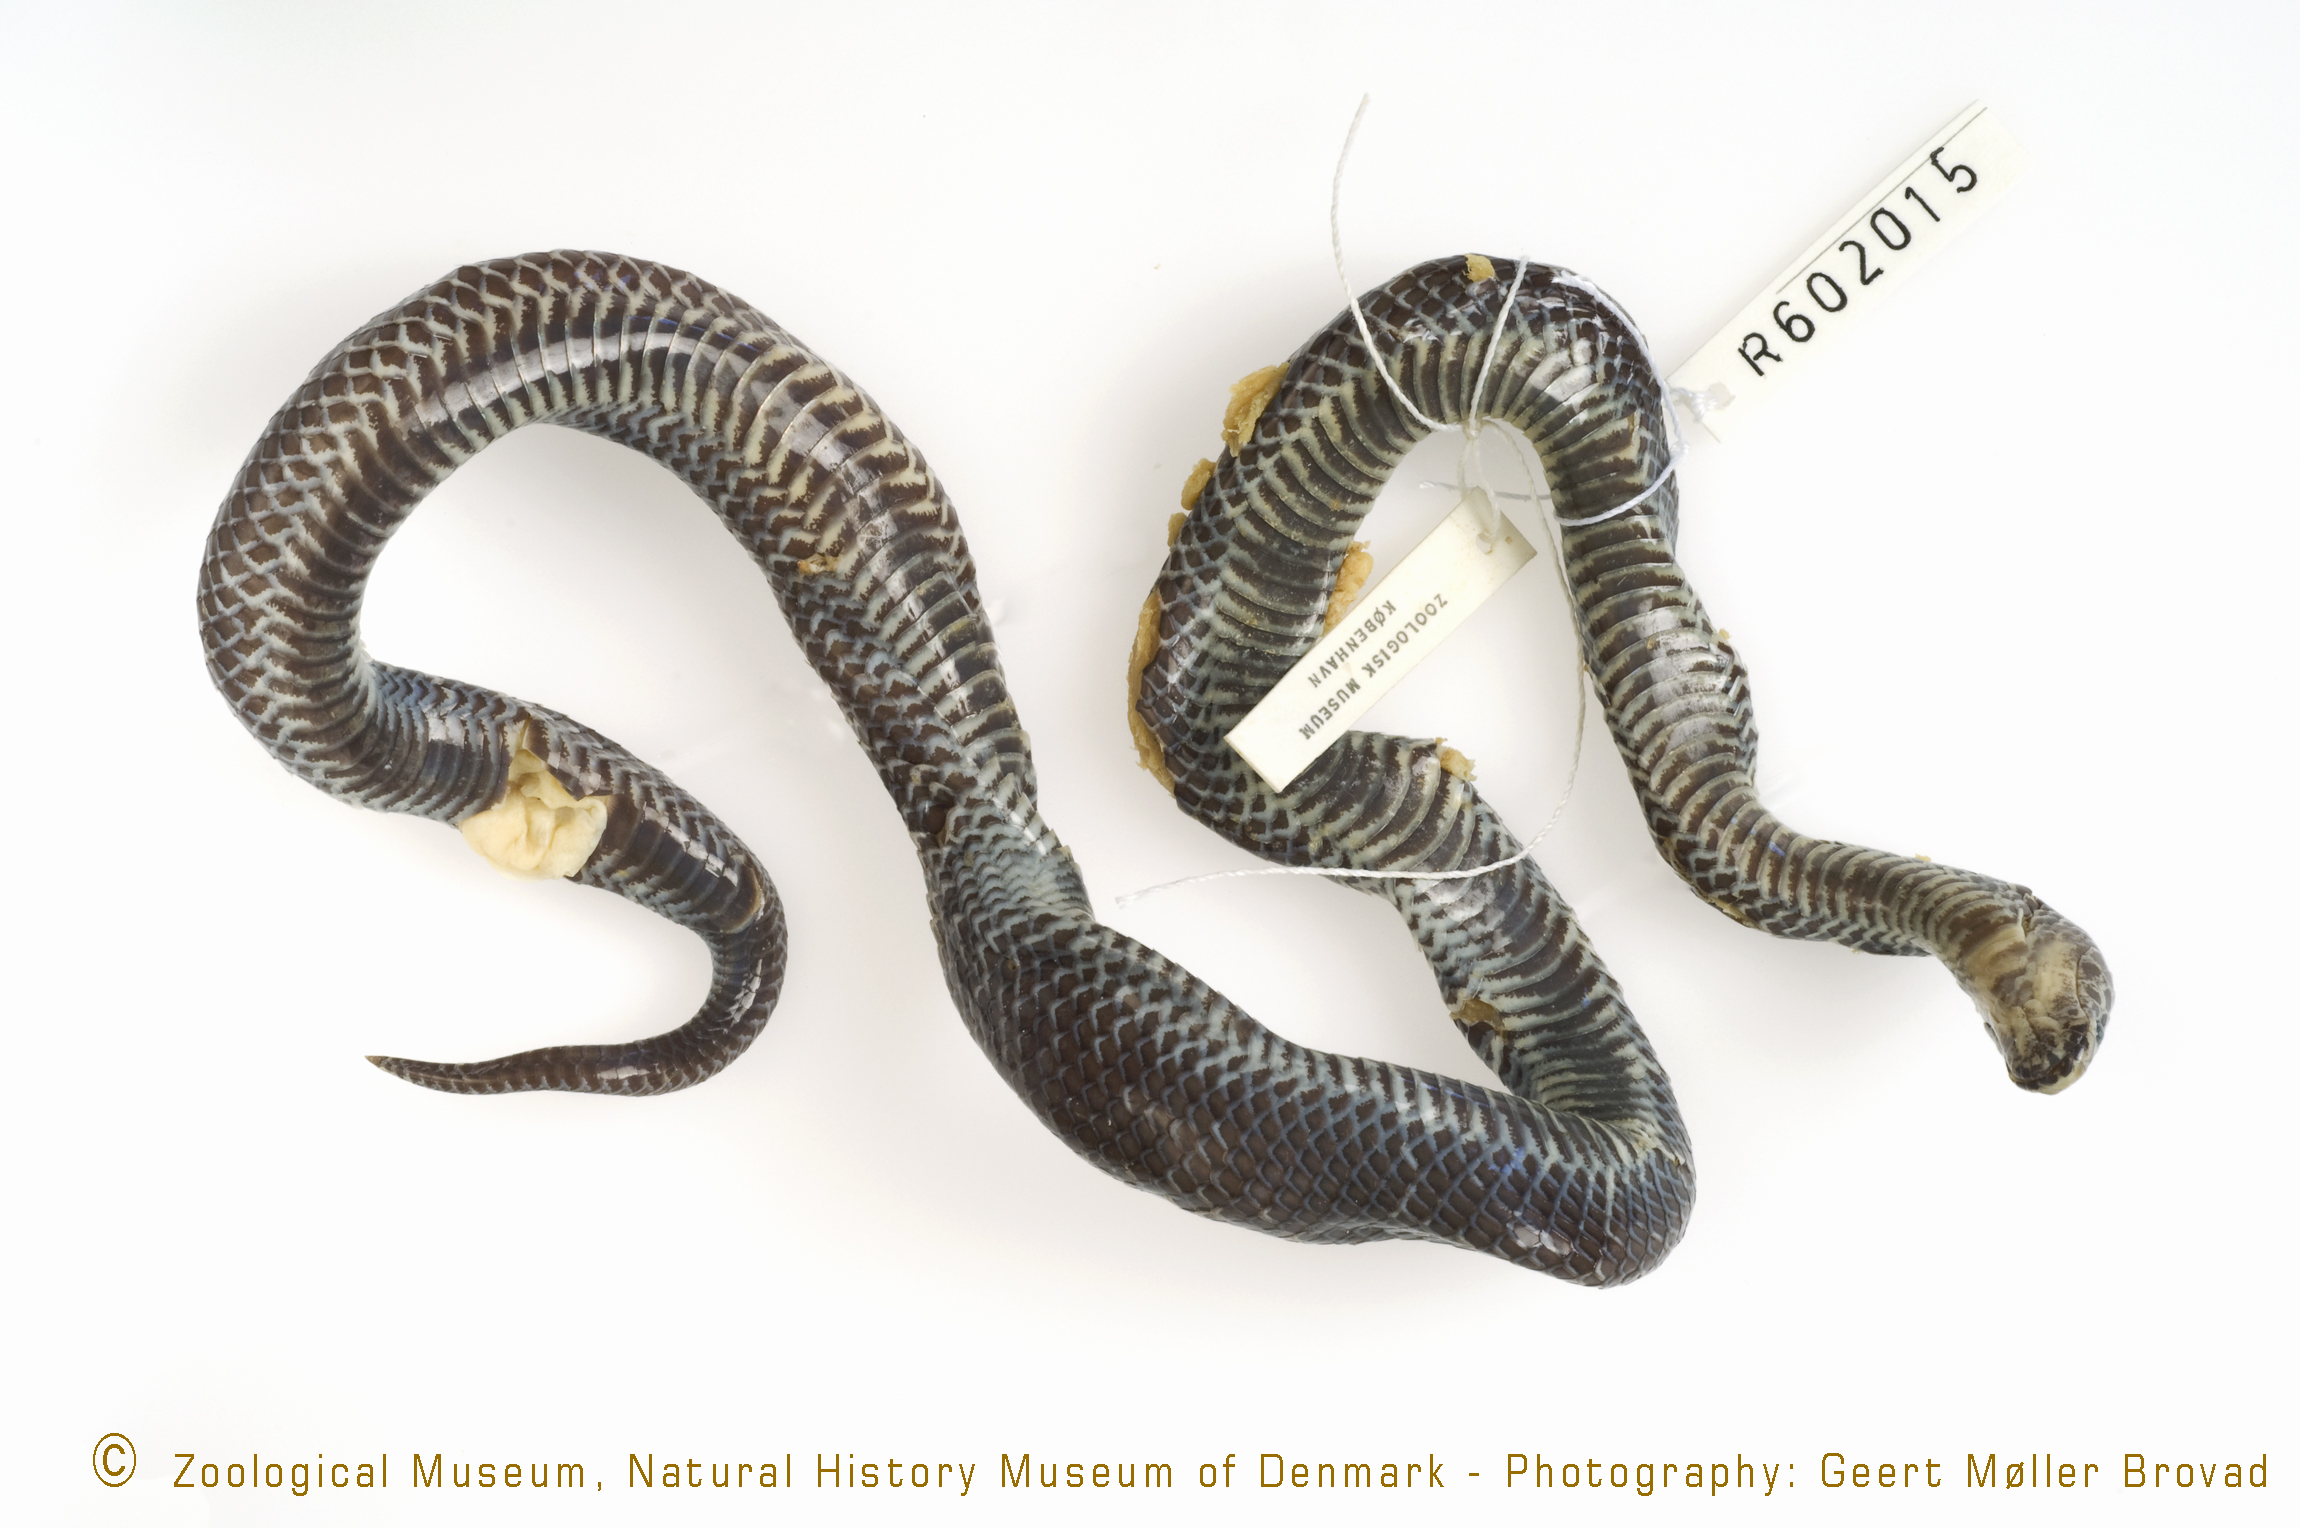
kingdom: Animalia
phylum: Chordata
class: Squamata
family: Lamprophiidae
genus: Lycophidion
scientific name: Lycophidion jacksoni
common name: Western jackson’s wolf snake
